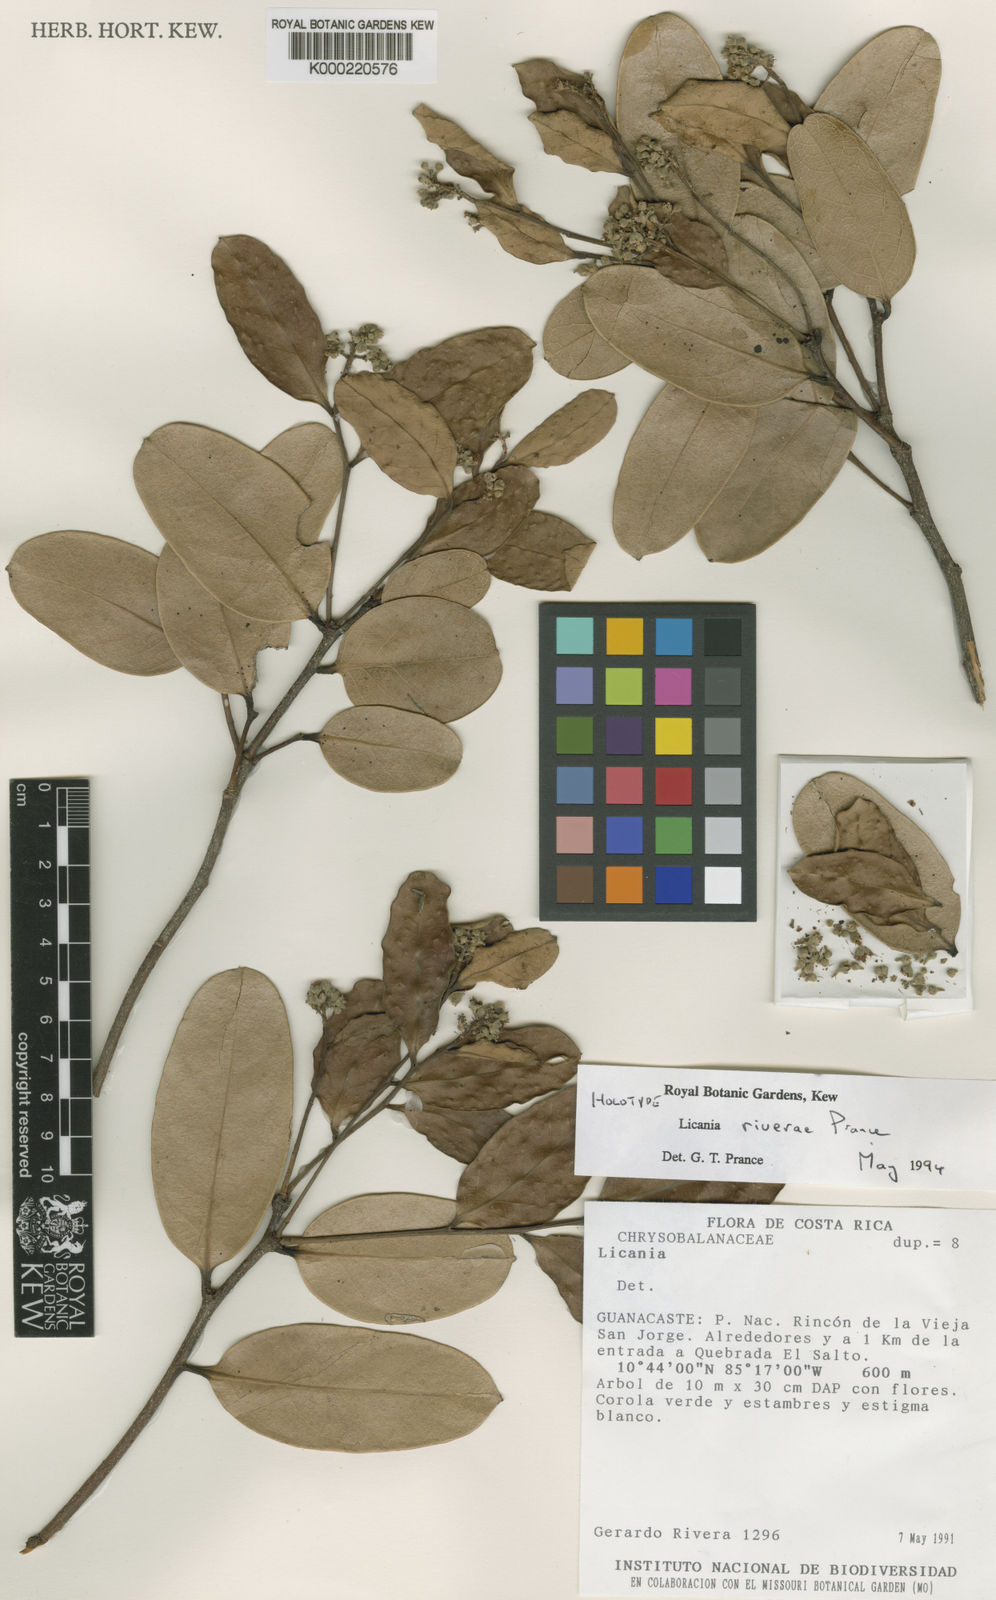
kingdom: Plantae
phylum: Tracheophyta
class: Magnoliopsida
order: Malpighiales
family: Chrysobalanaceae
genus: Geobalanus
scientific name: Geobalanus riverae
